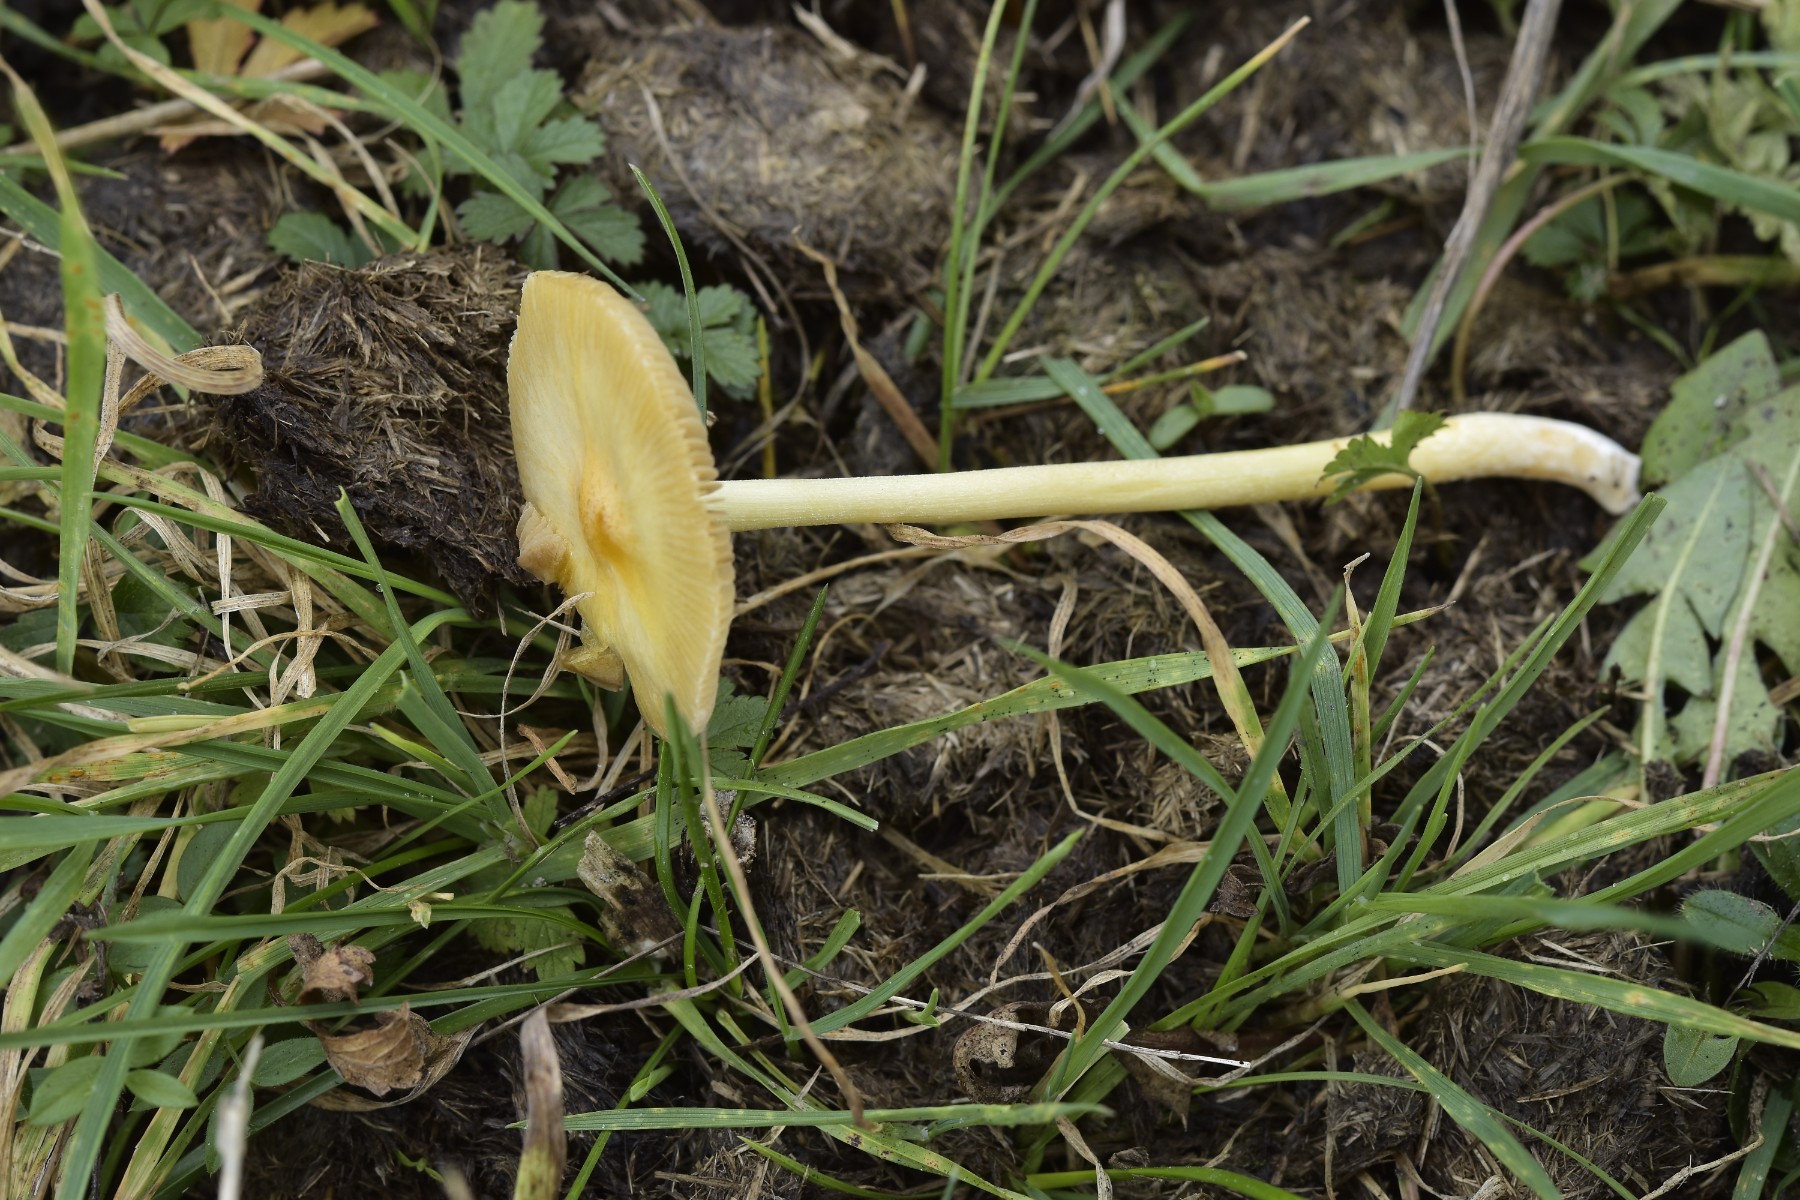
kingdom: Fungi
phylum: Basidiomycota
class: Agaricomycetes
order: Agaricales
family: Bolbitiaceae
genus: Bolbitius
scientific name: Bolbitius titubans
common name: almindelig gulhat
